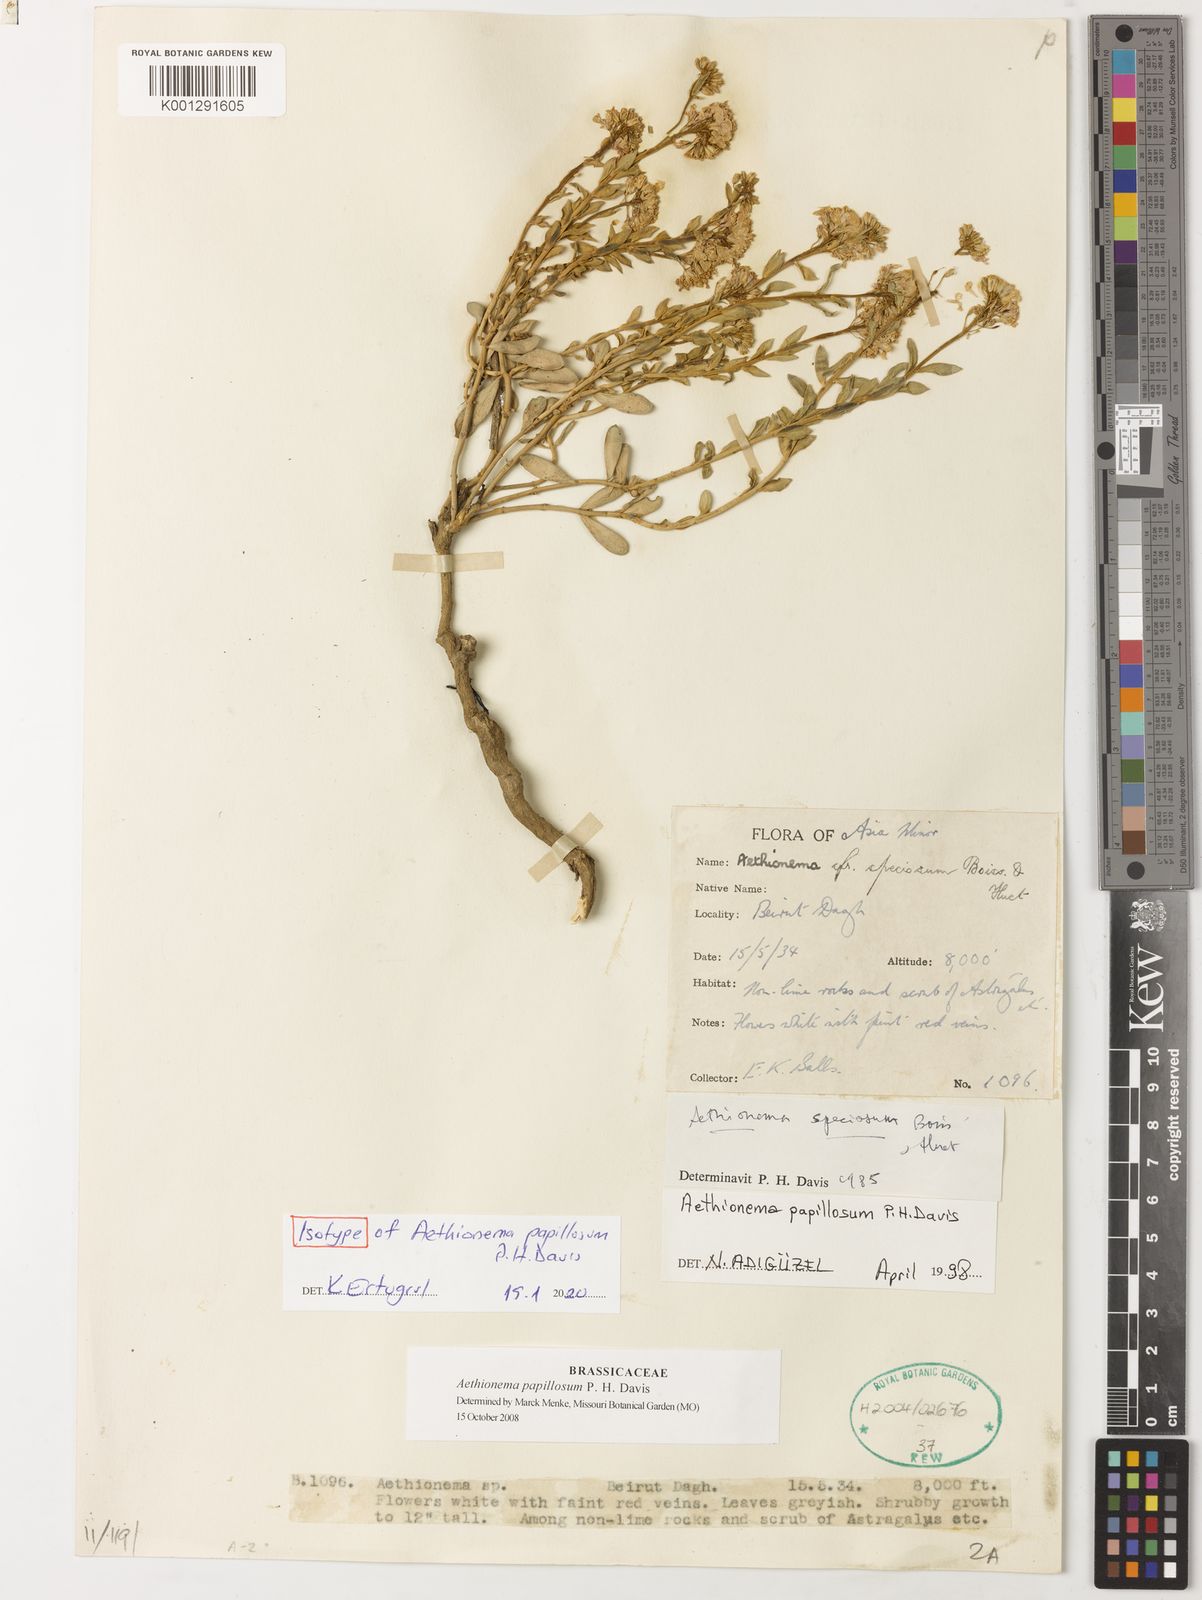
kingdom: Plantae
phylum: Tracheophyta
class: Magnoliopsida
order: Brassicales
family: Brassicaceae
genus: Aethionema
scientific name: Aethionema papillosum
